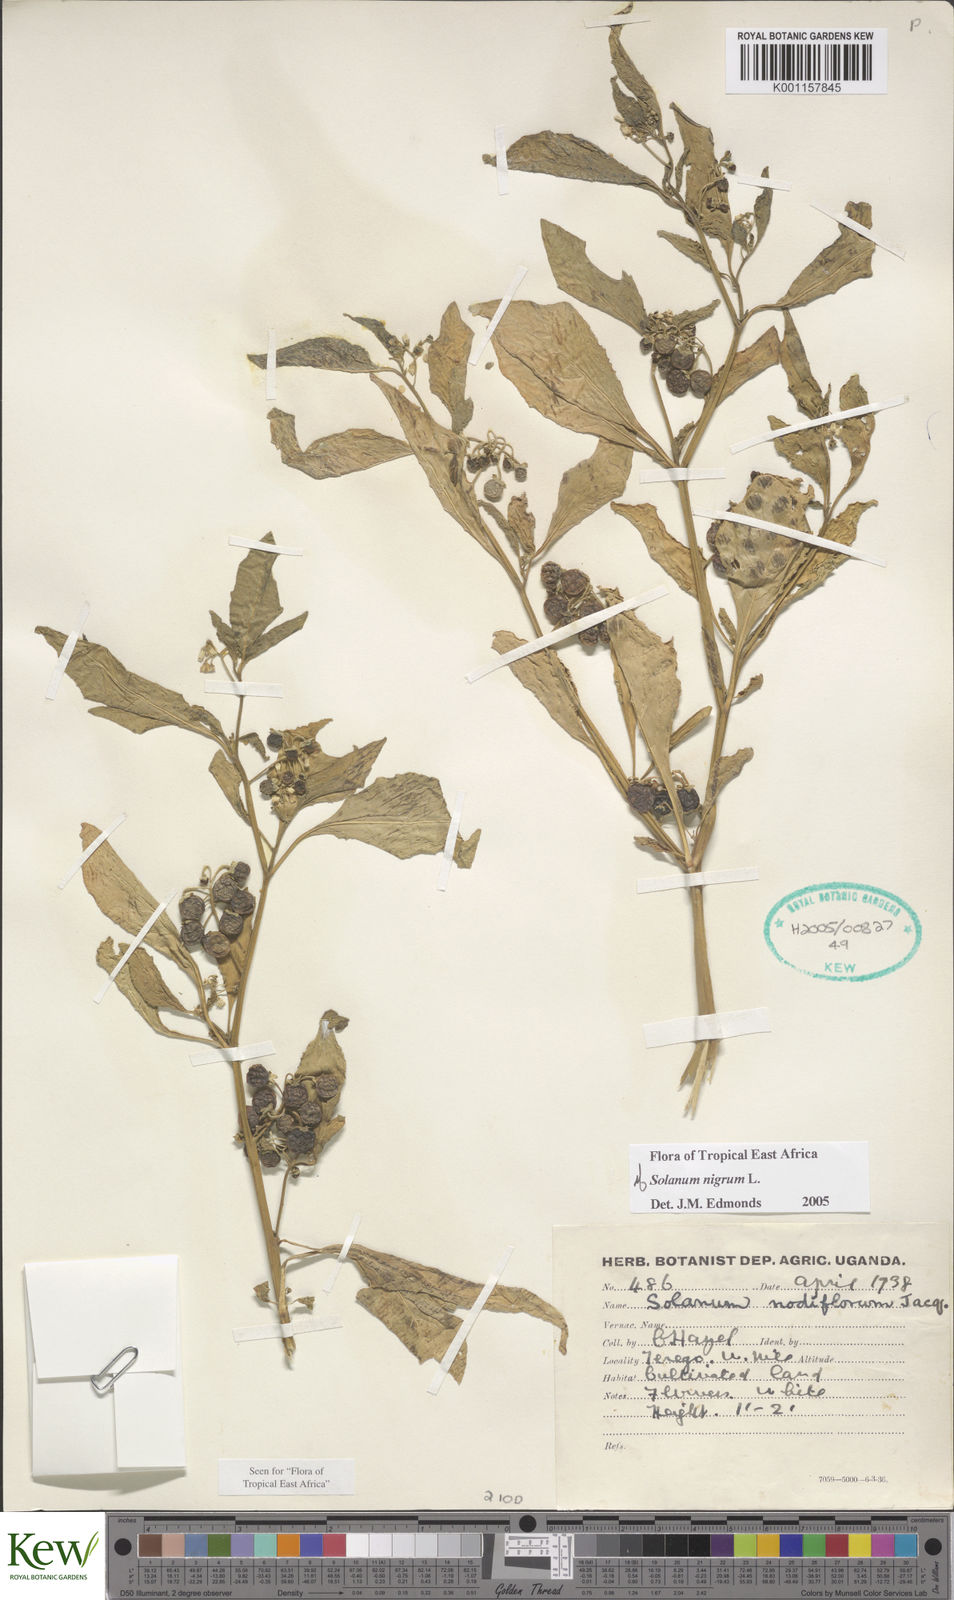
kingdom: Plantae
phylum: Tracheophyta
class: Magnoliopsida
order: Solanales
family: Solanaceae
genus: Solanum
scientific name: Solanum nigrum
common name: Black nightshade
